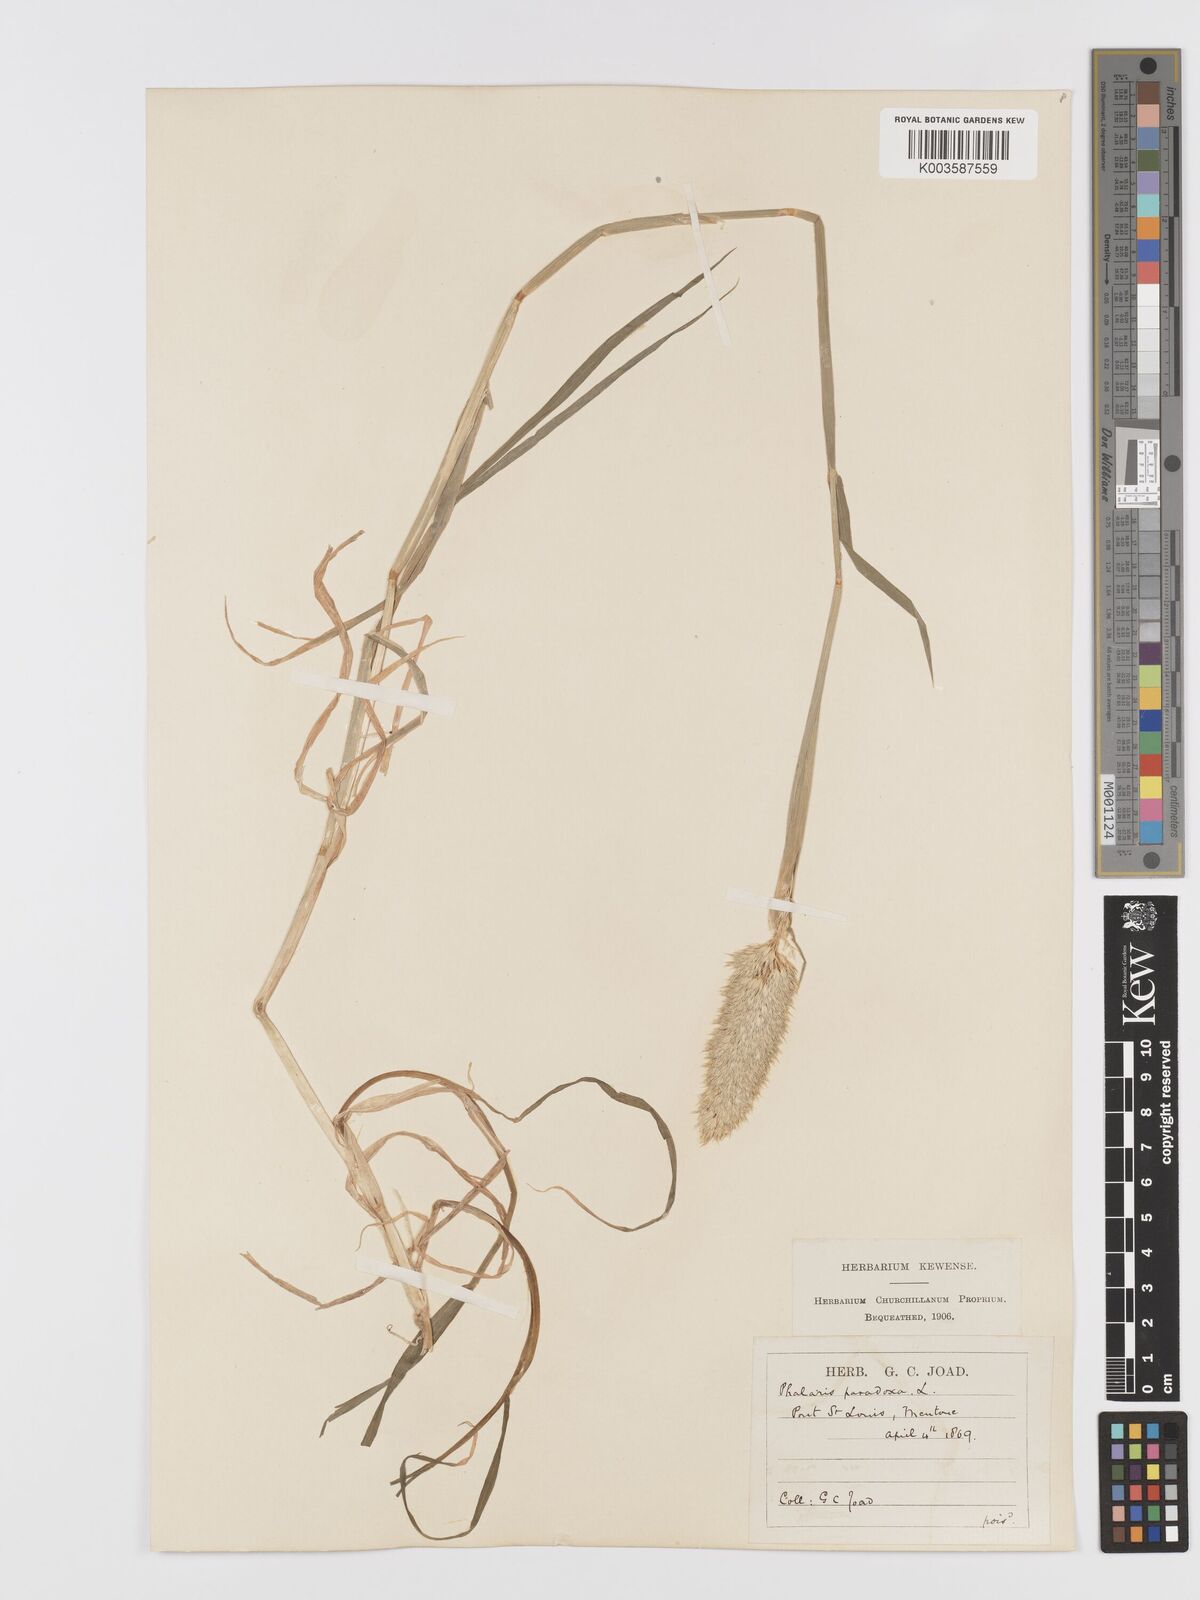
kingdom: Plantae
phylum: Tracheophyta
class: Liliopsida
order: Poales
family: Poaceae
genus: Phalaris
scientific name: Phalaris paradoxa
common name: Awned canary-grass
